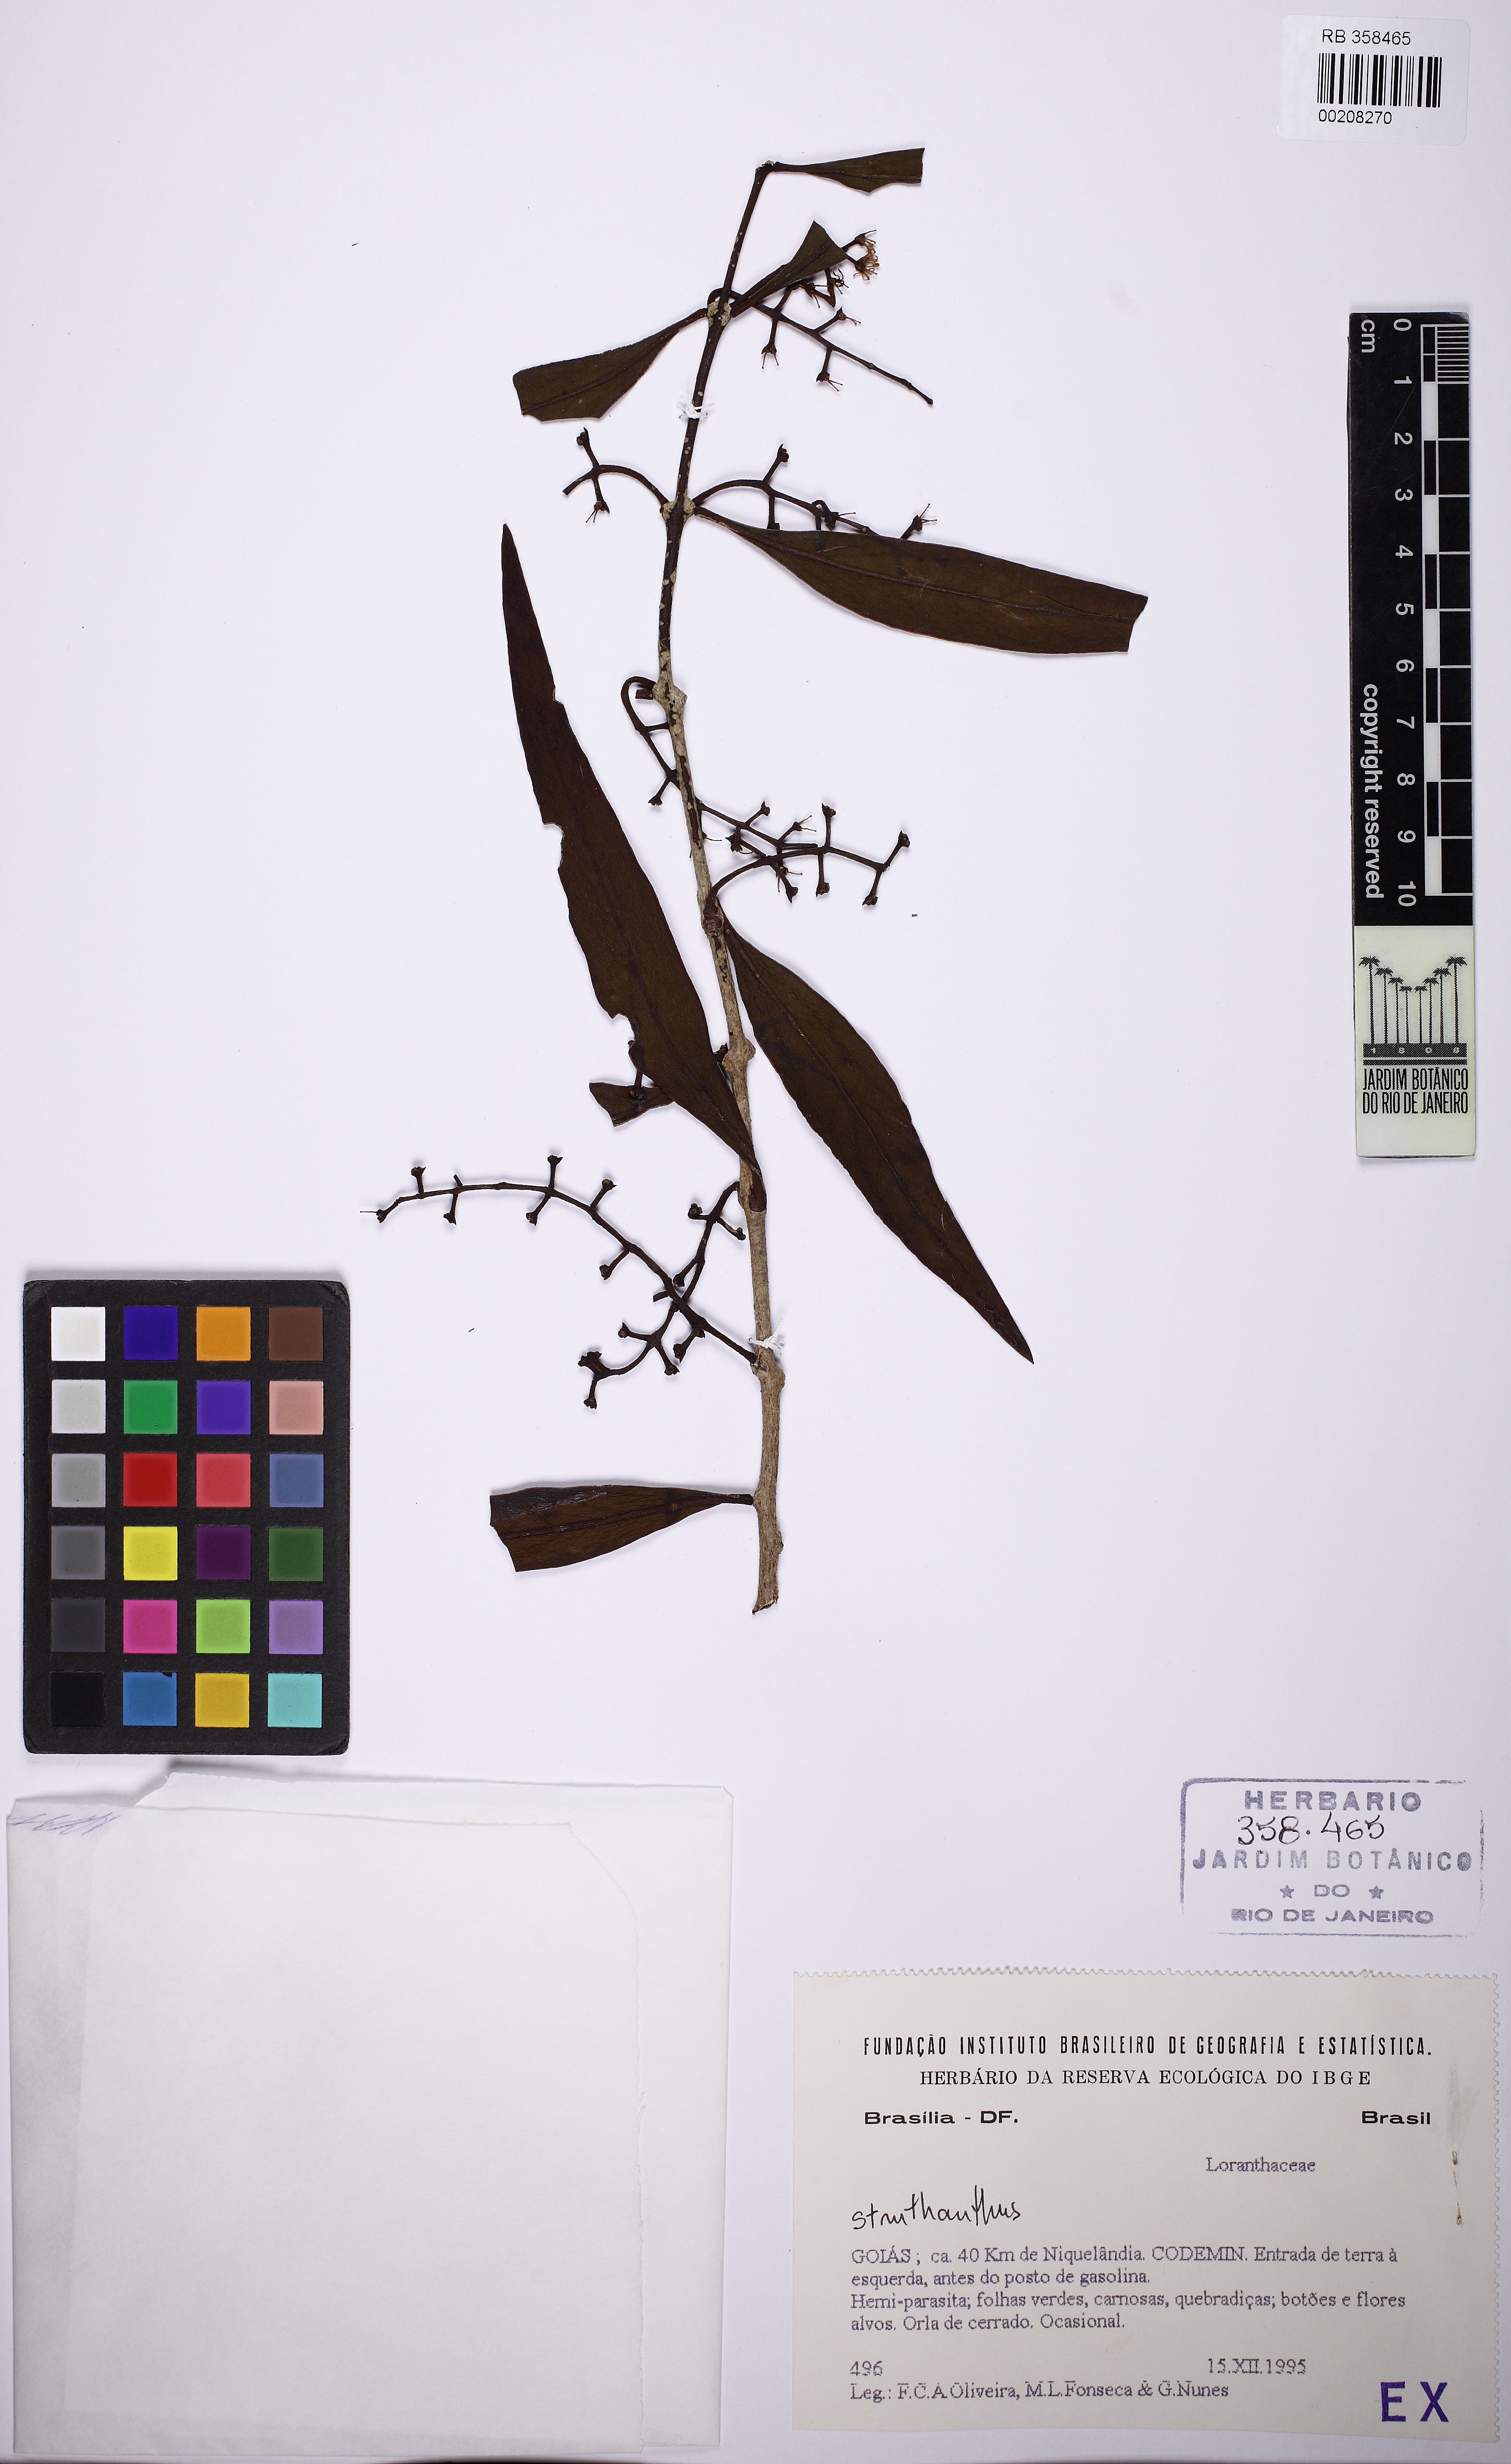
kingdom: Plantae
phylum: Tracheophyta
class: Magnoliopsida
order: Santalales
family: Loranthaceae
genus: Struthanthus
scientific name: Struthanthus
